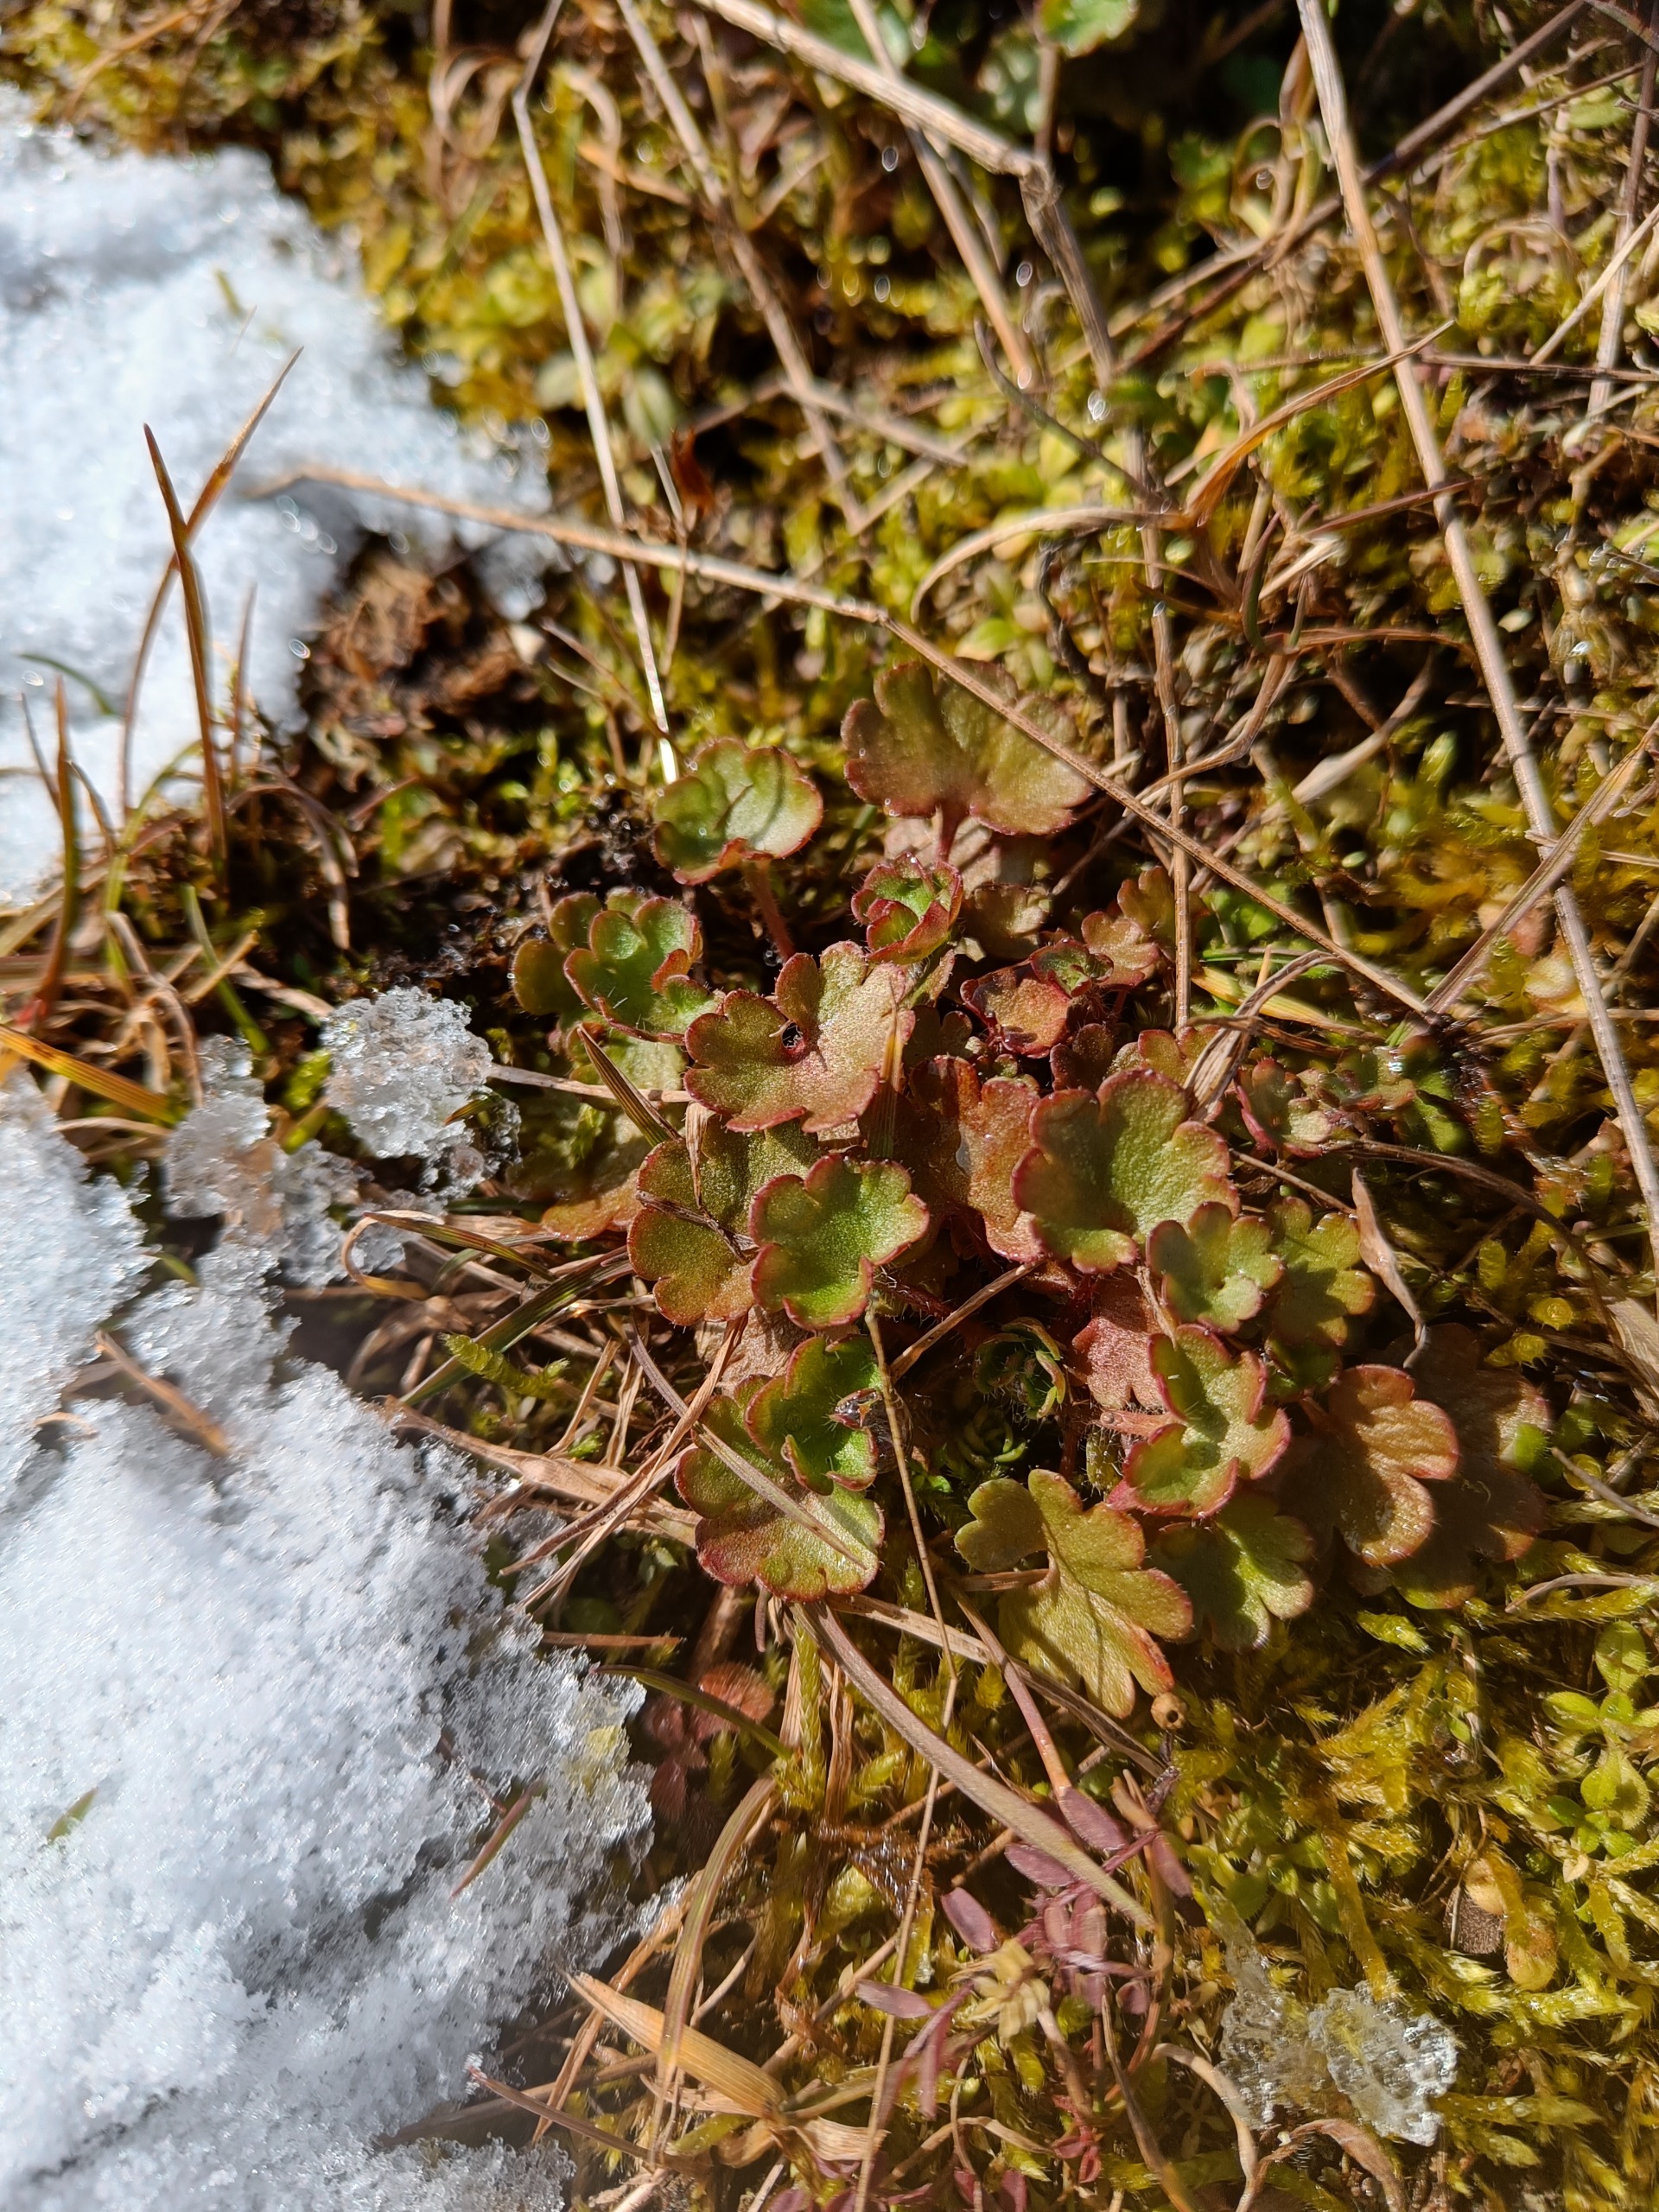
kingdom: Plantae
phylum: Tracheophyta
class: Magnoliopsida
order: Saxifragales
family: Saxifragaceae
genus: Saxifraga
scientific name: Saxifraga granulata
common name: Kornet stenbræk
